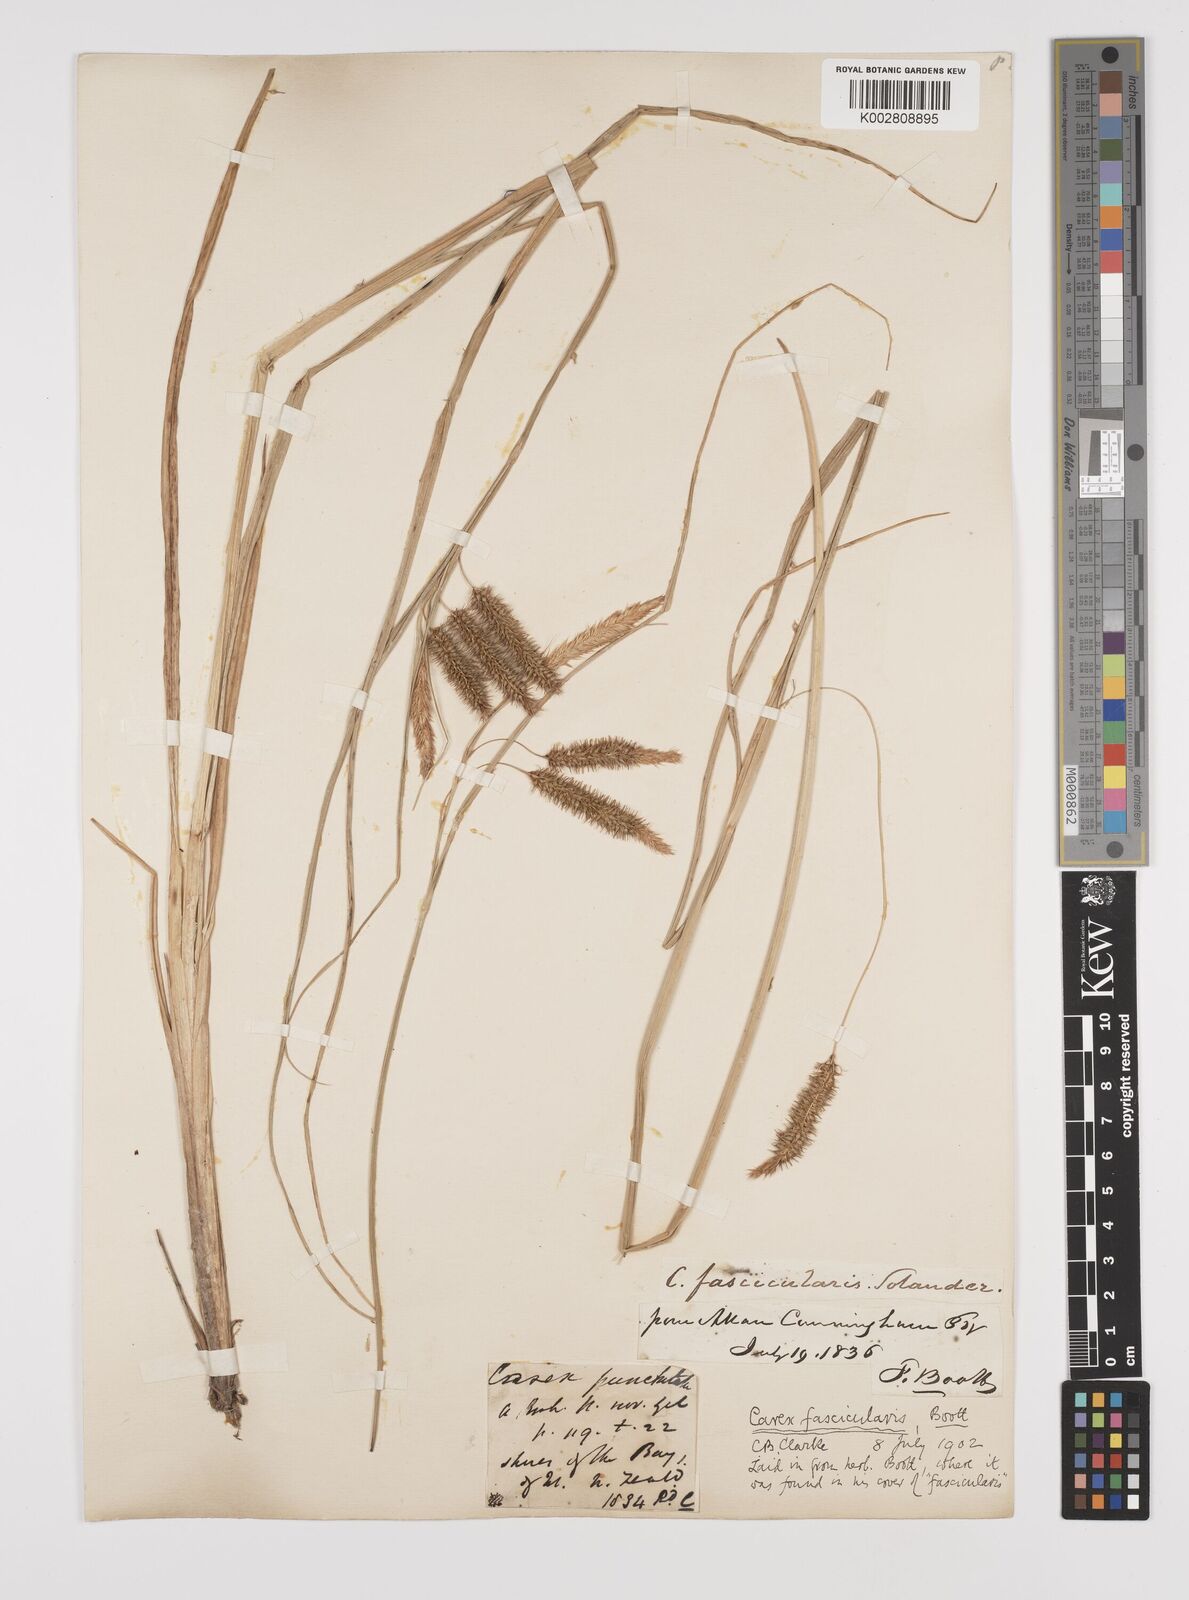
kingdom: Plantae
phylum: Tracheophyta
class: Liliopsida
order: Poales
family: Cyperaceae
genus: Carex
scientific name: Carex pseudocyperus
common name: Cyperus sedge
